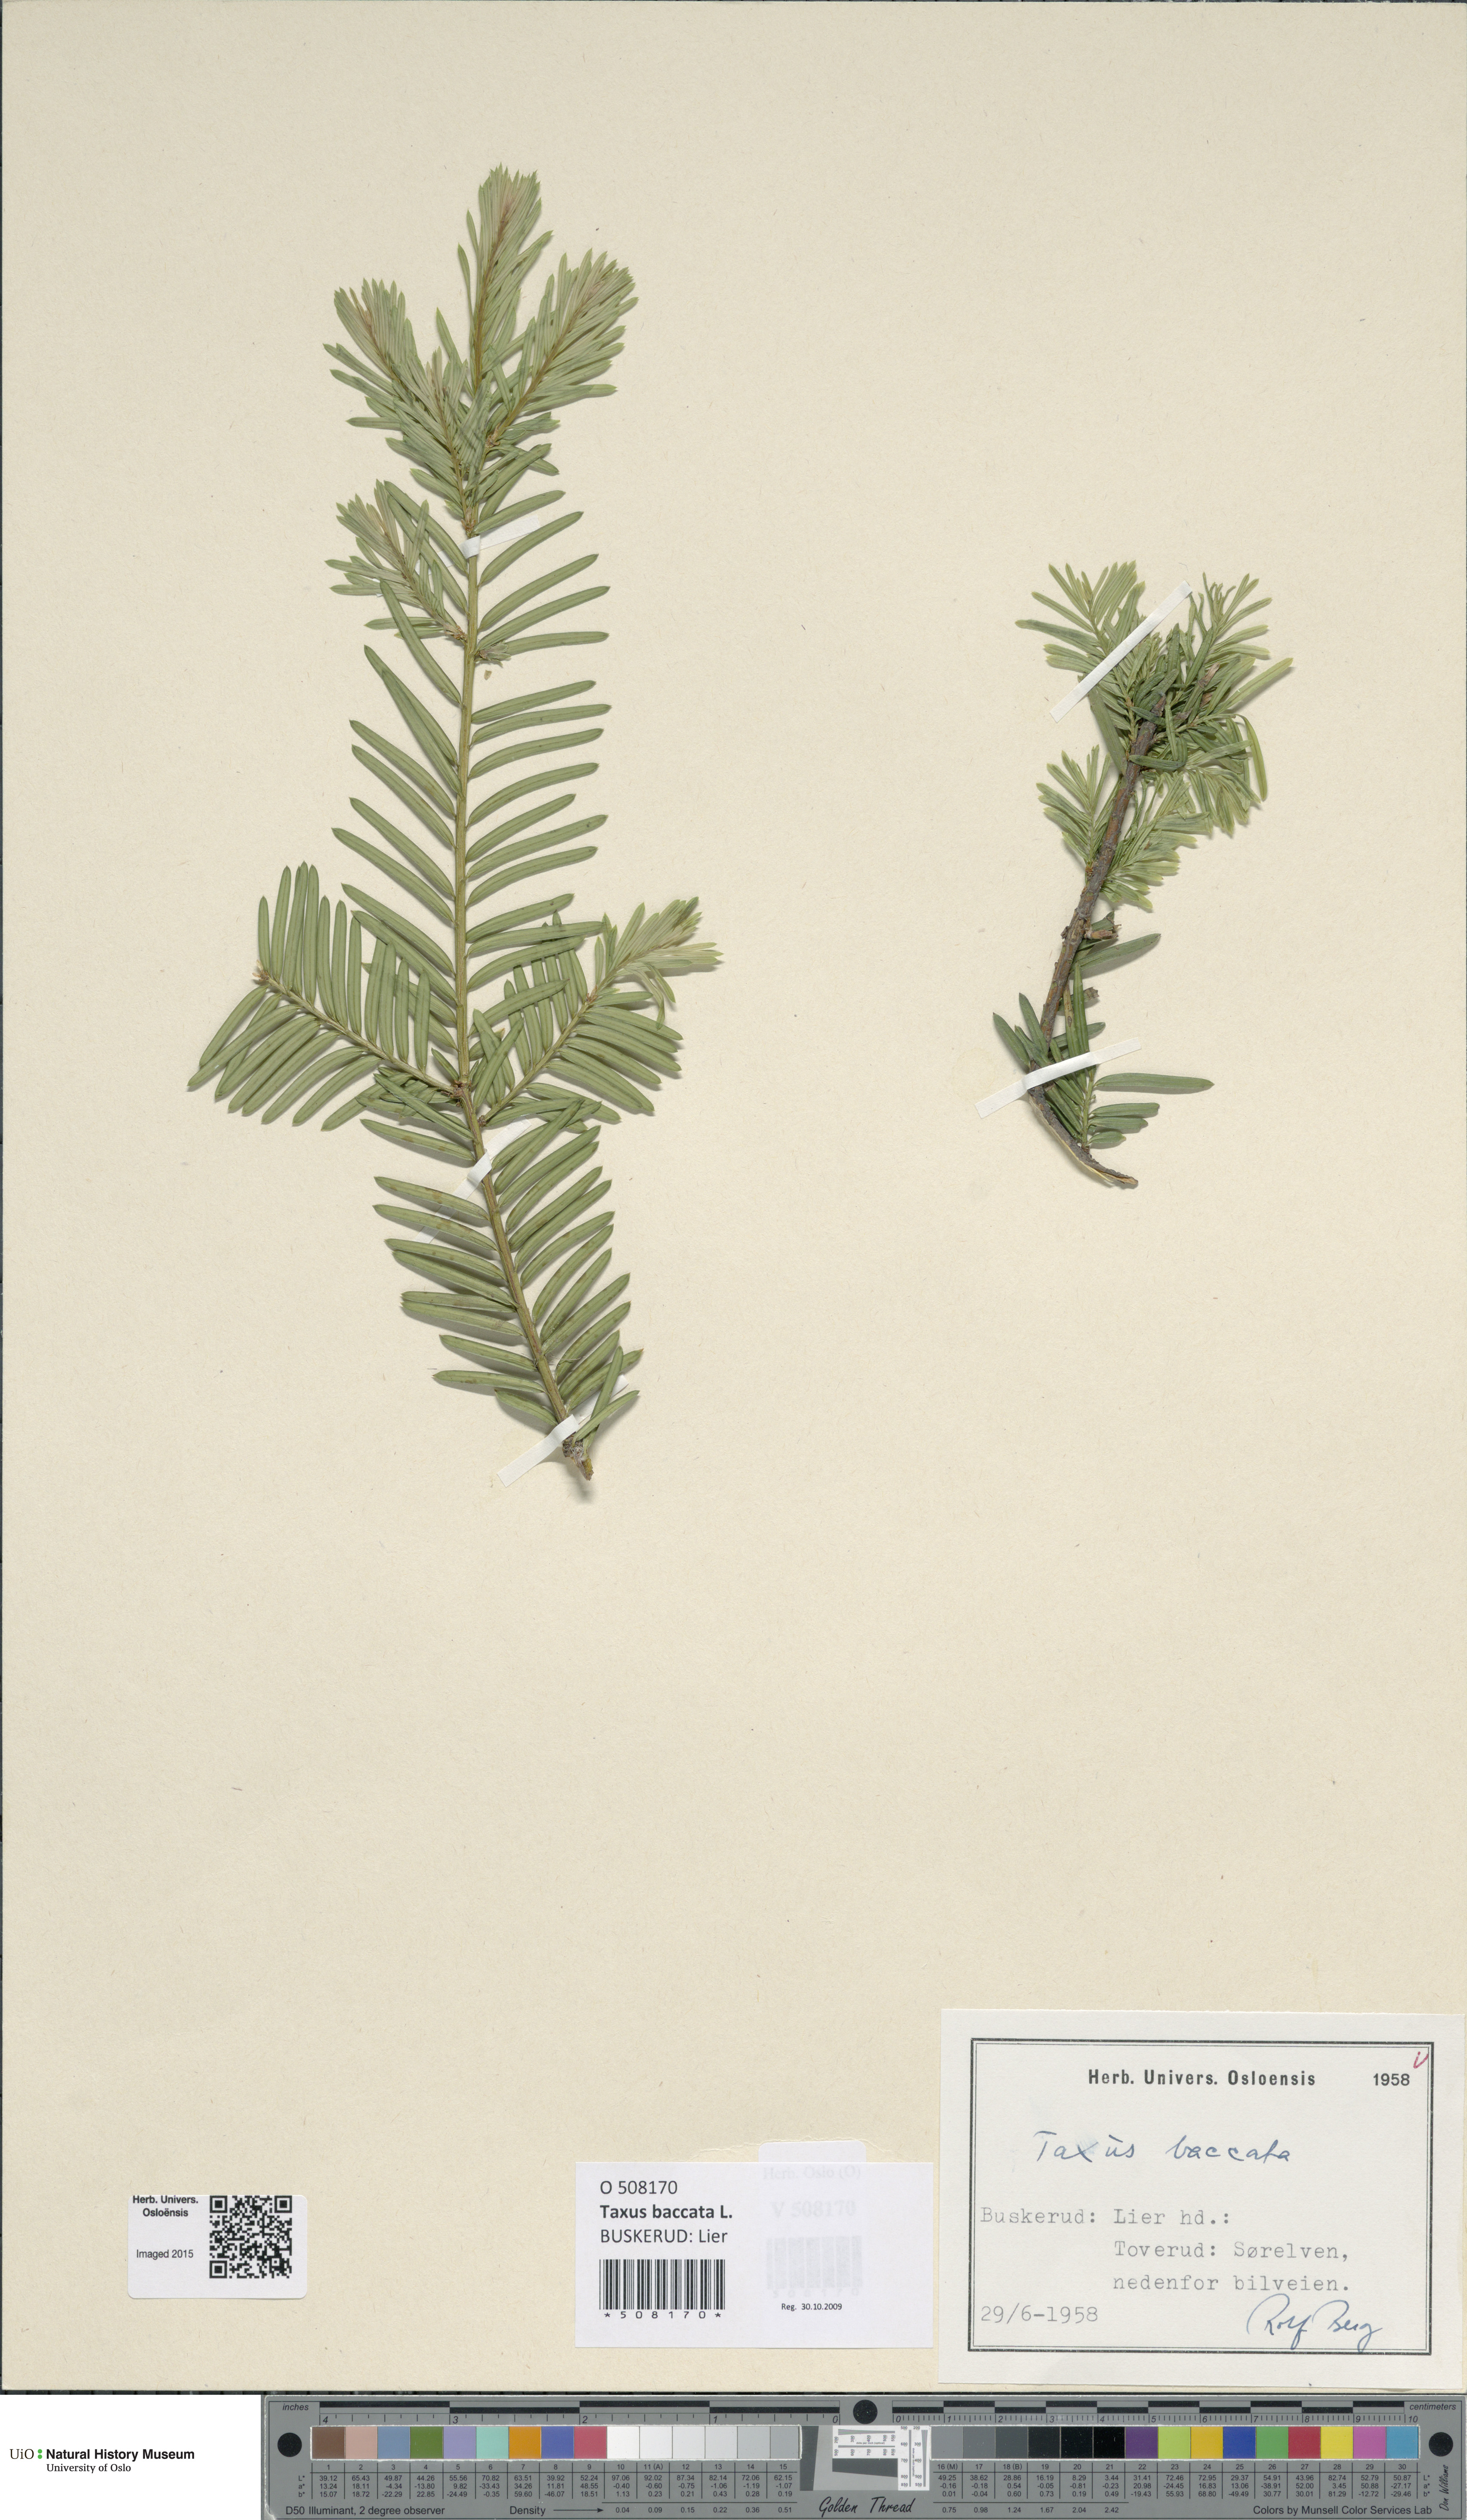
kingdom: Plantae
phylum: Tracheophyta
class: Pinopsida
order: Pinales
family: Taxaceae
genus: Taxus
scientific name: Taxus baccata
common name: Yew
